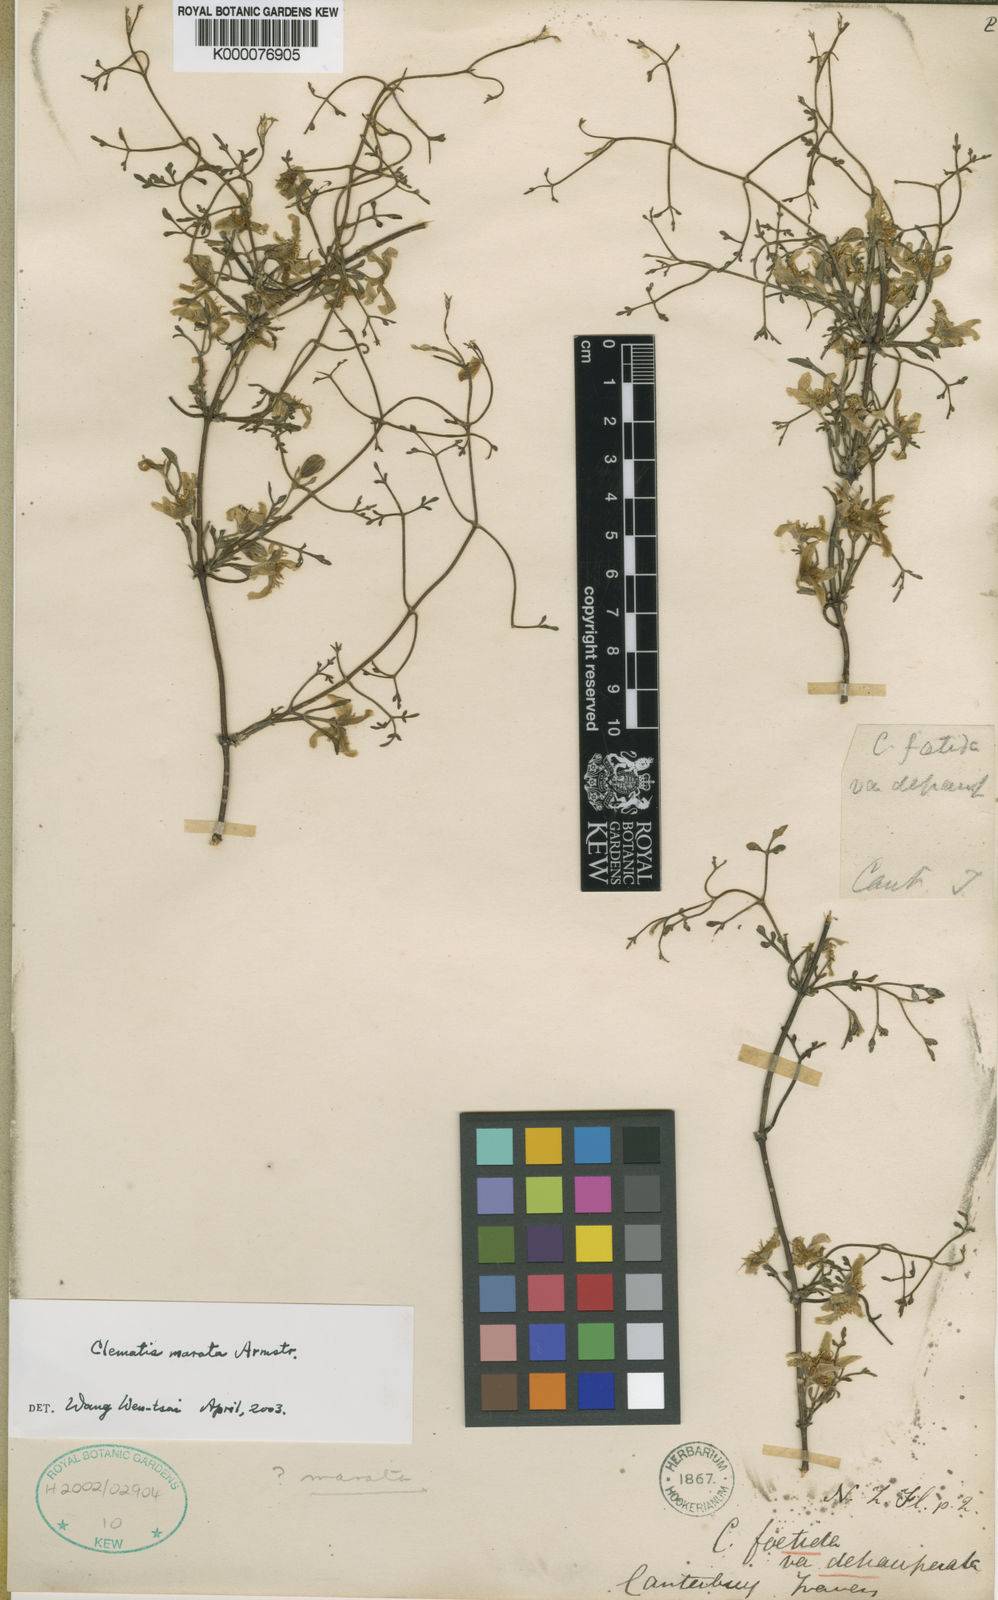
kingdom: Plantae
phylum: Tracheophyta
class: Magnoliopsida
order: Ranunculales
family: Ranunculaceae
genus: Clematis
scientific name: Clematis marata
